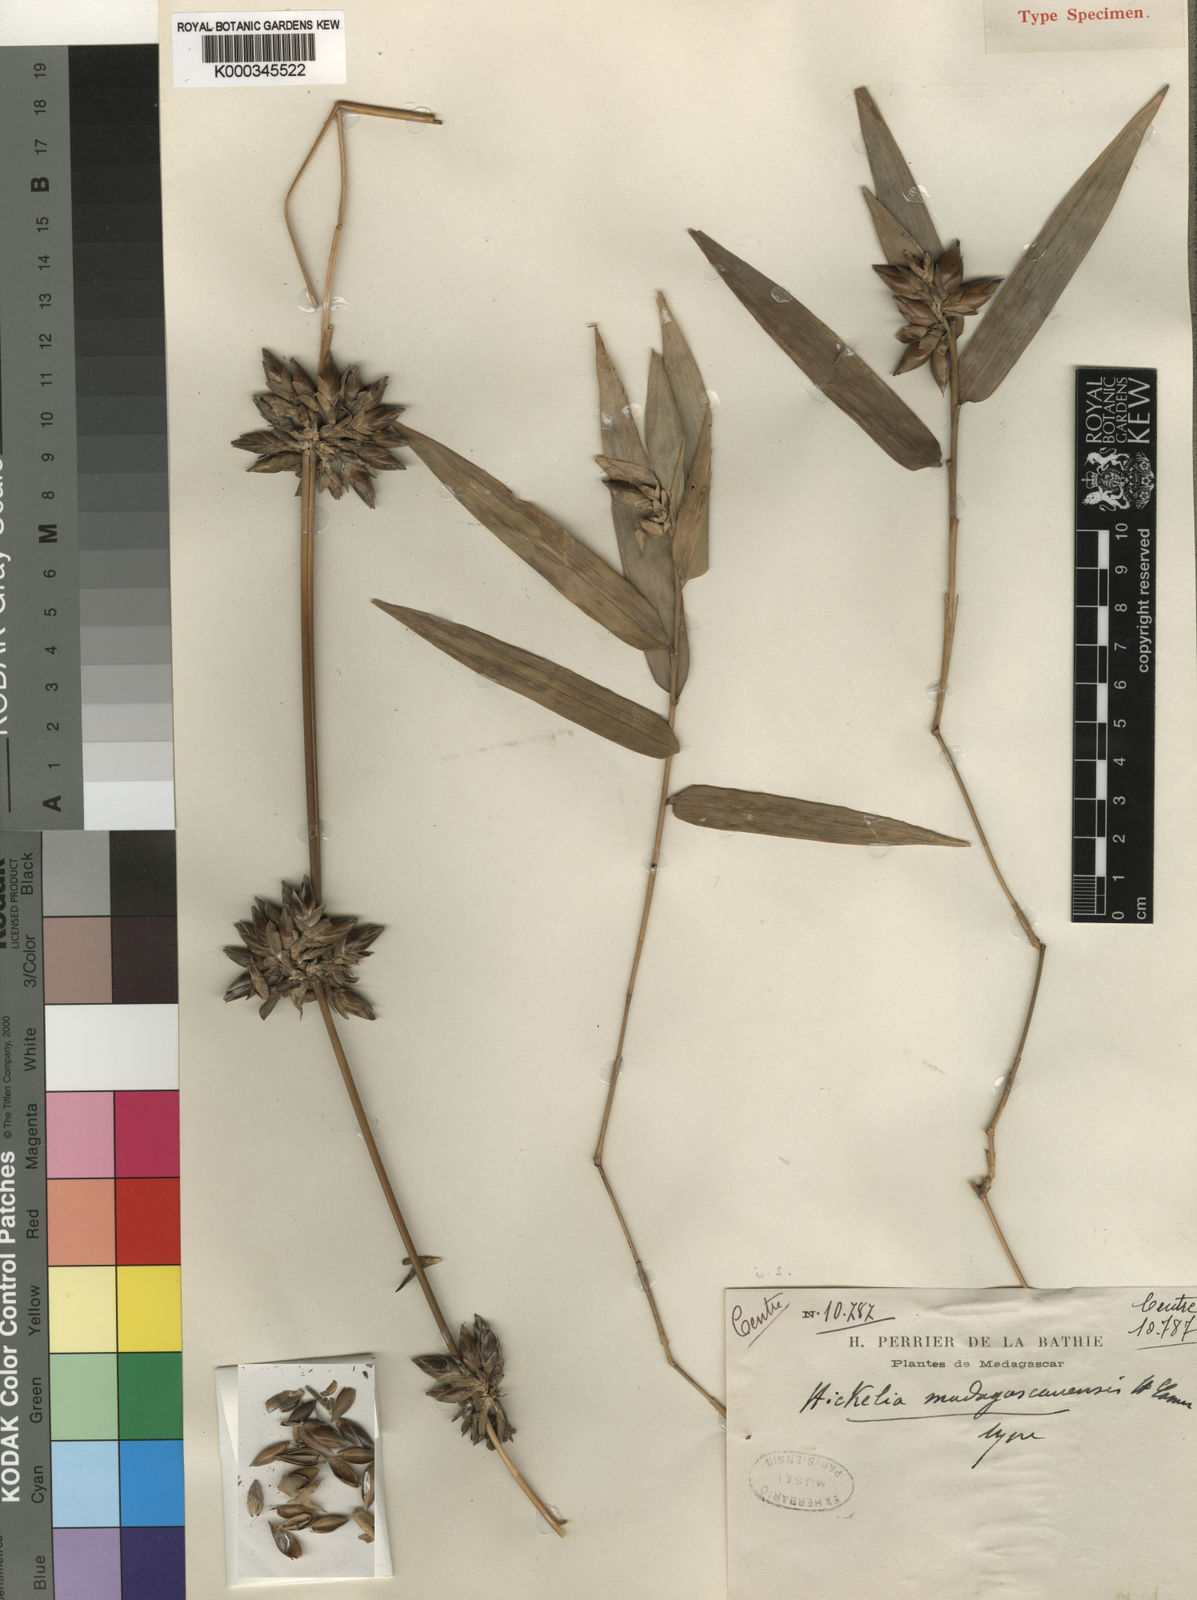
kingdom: Plantae
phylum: Tracheophyta
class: Liliopsida
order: Poales
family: Poaceae
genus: Hickelia
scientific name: Hickelia madagascariensis
